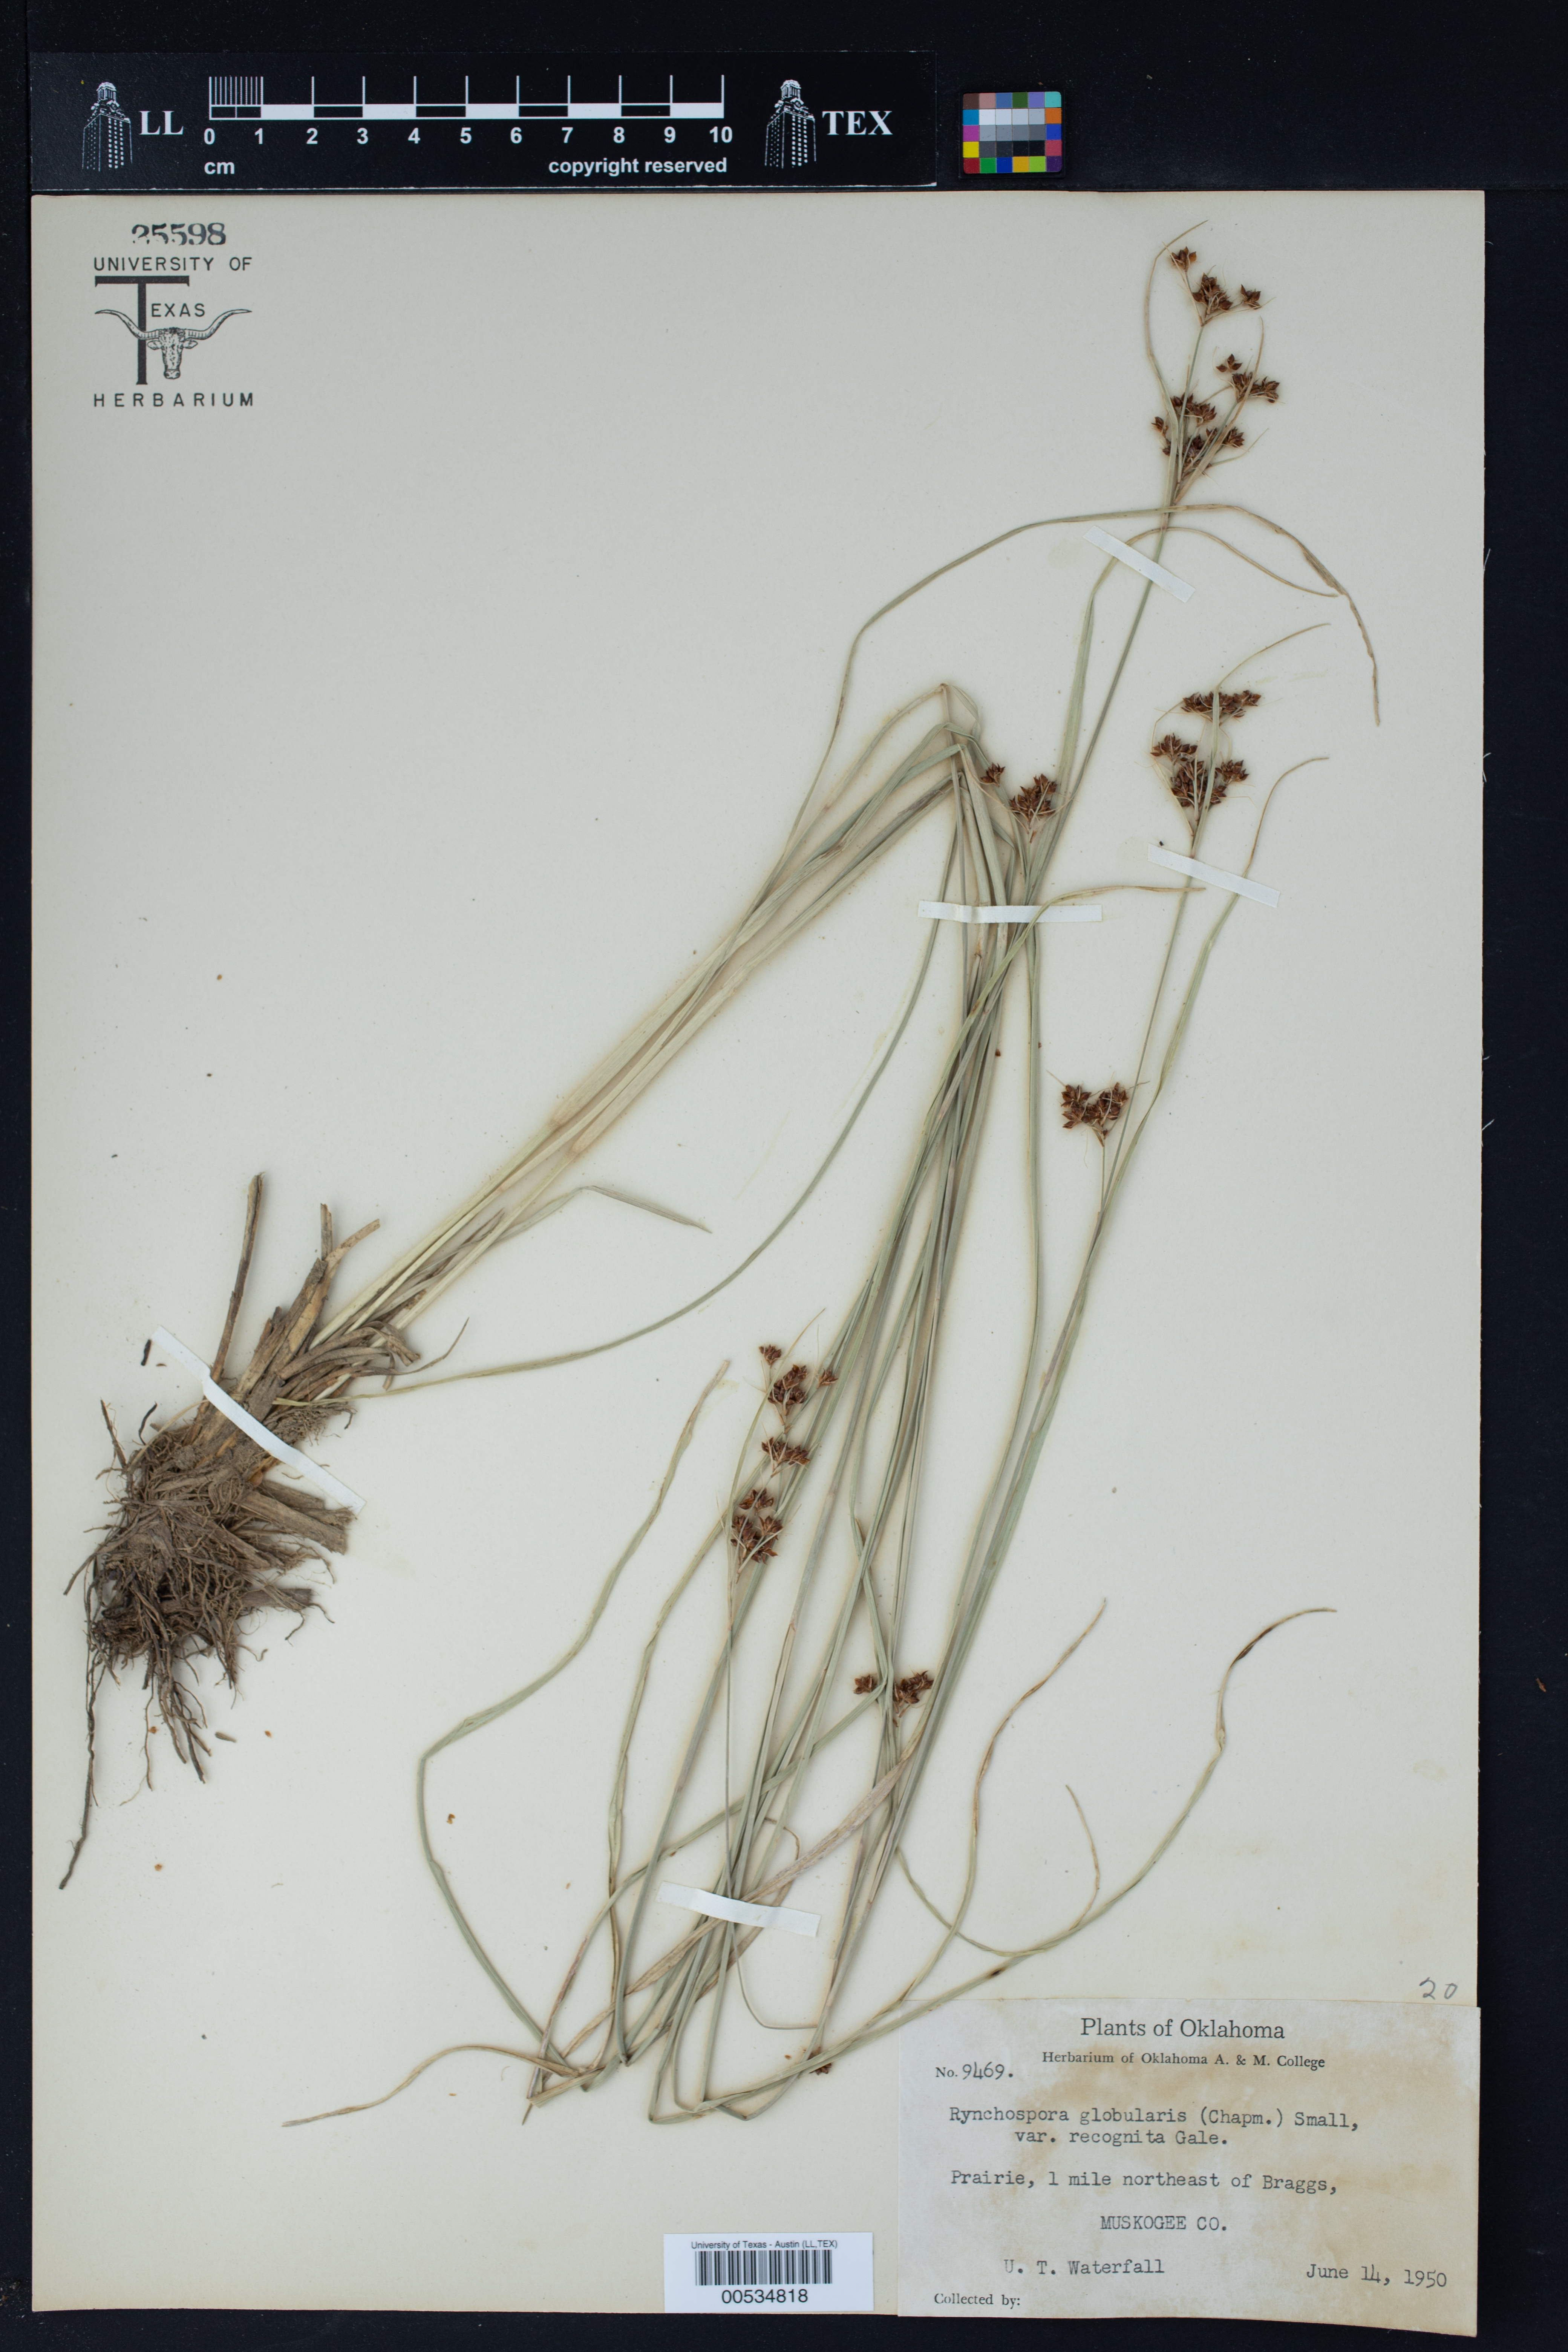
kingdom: Plantae
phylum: Tracheophyta
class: Liliopsida
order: Poales
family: Cyperaceae
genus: Rhynchospora
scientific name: Rhynchospora globularis
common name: Globe beaksedge
